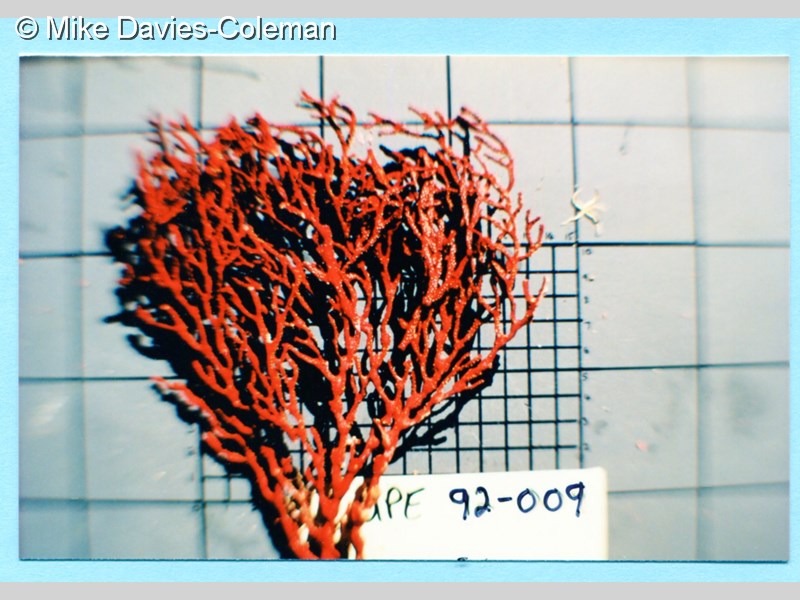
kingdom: Animalia
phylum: Cnidaria
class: Anthozoa
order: Malacalcyonacea
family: Melithaeidae
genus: Melithaea
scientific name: Melithaea rubra
